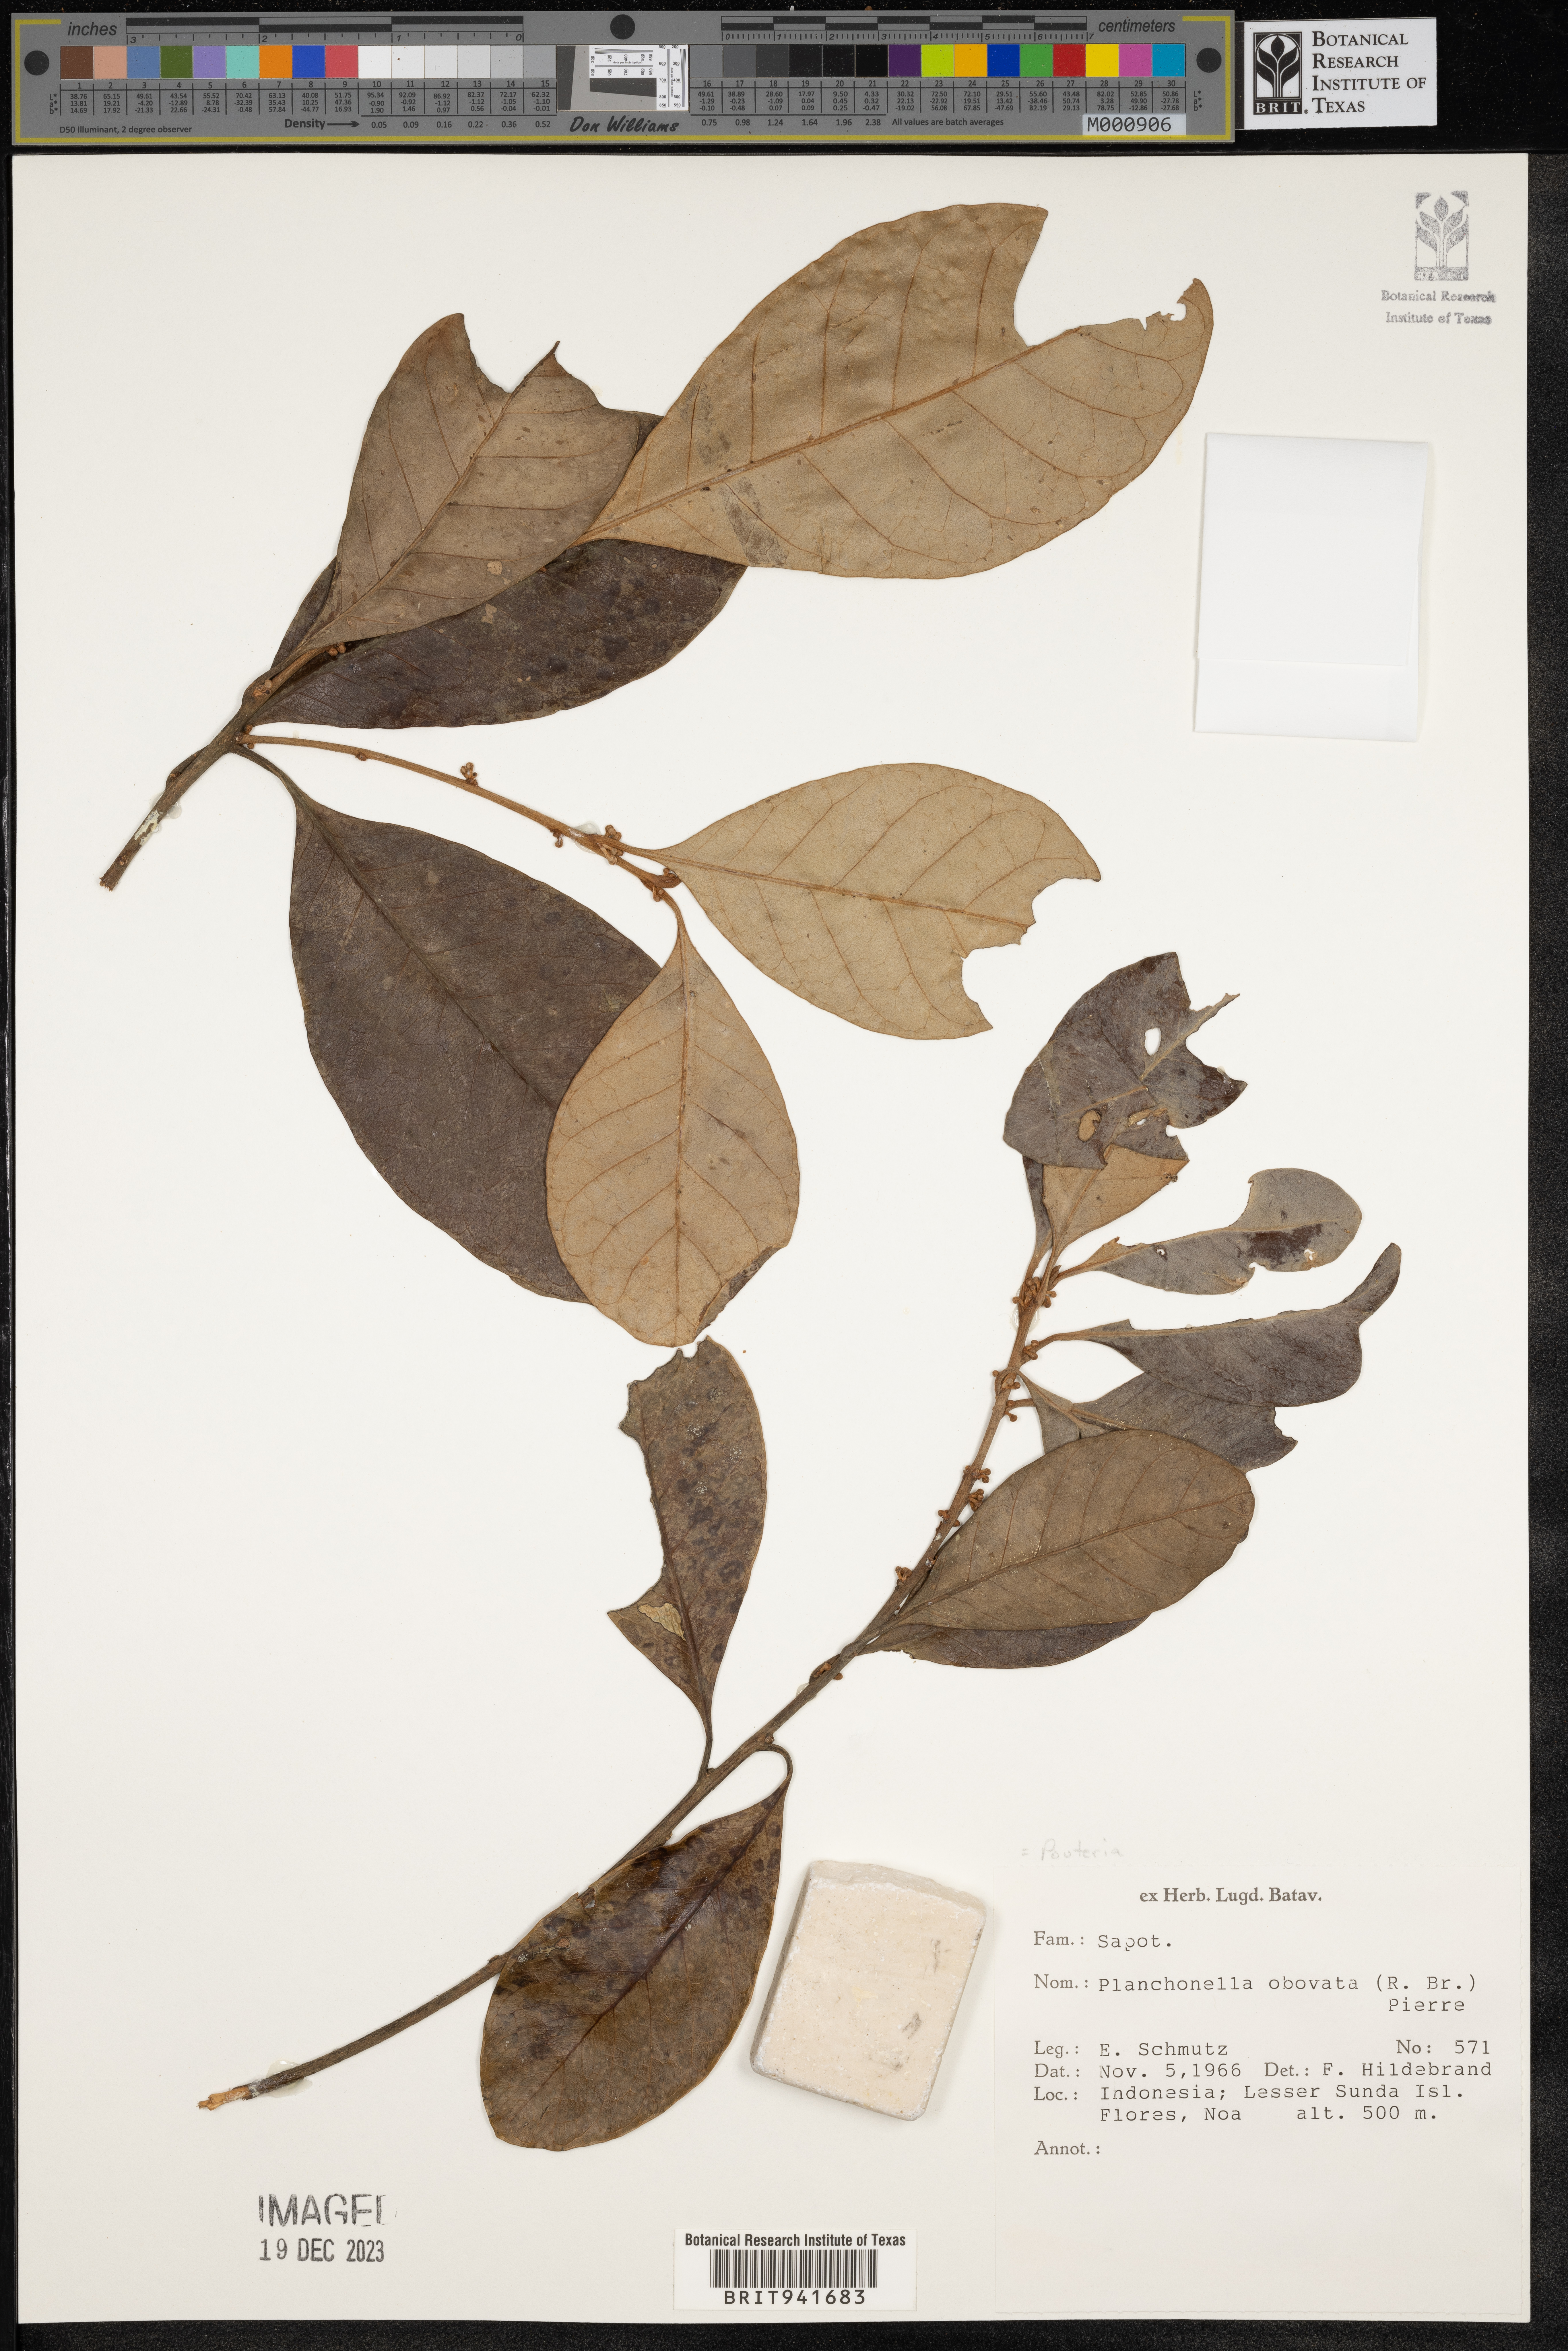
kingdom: Plantae
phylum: Tracheophyta
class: Magnoliopsida
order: Ericales
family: Sapotaceae
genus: Planchonella
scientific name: Planchonella obovata
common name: Black-ash
